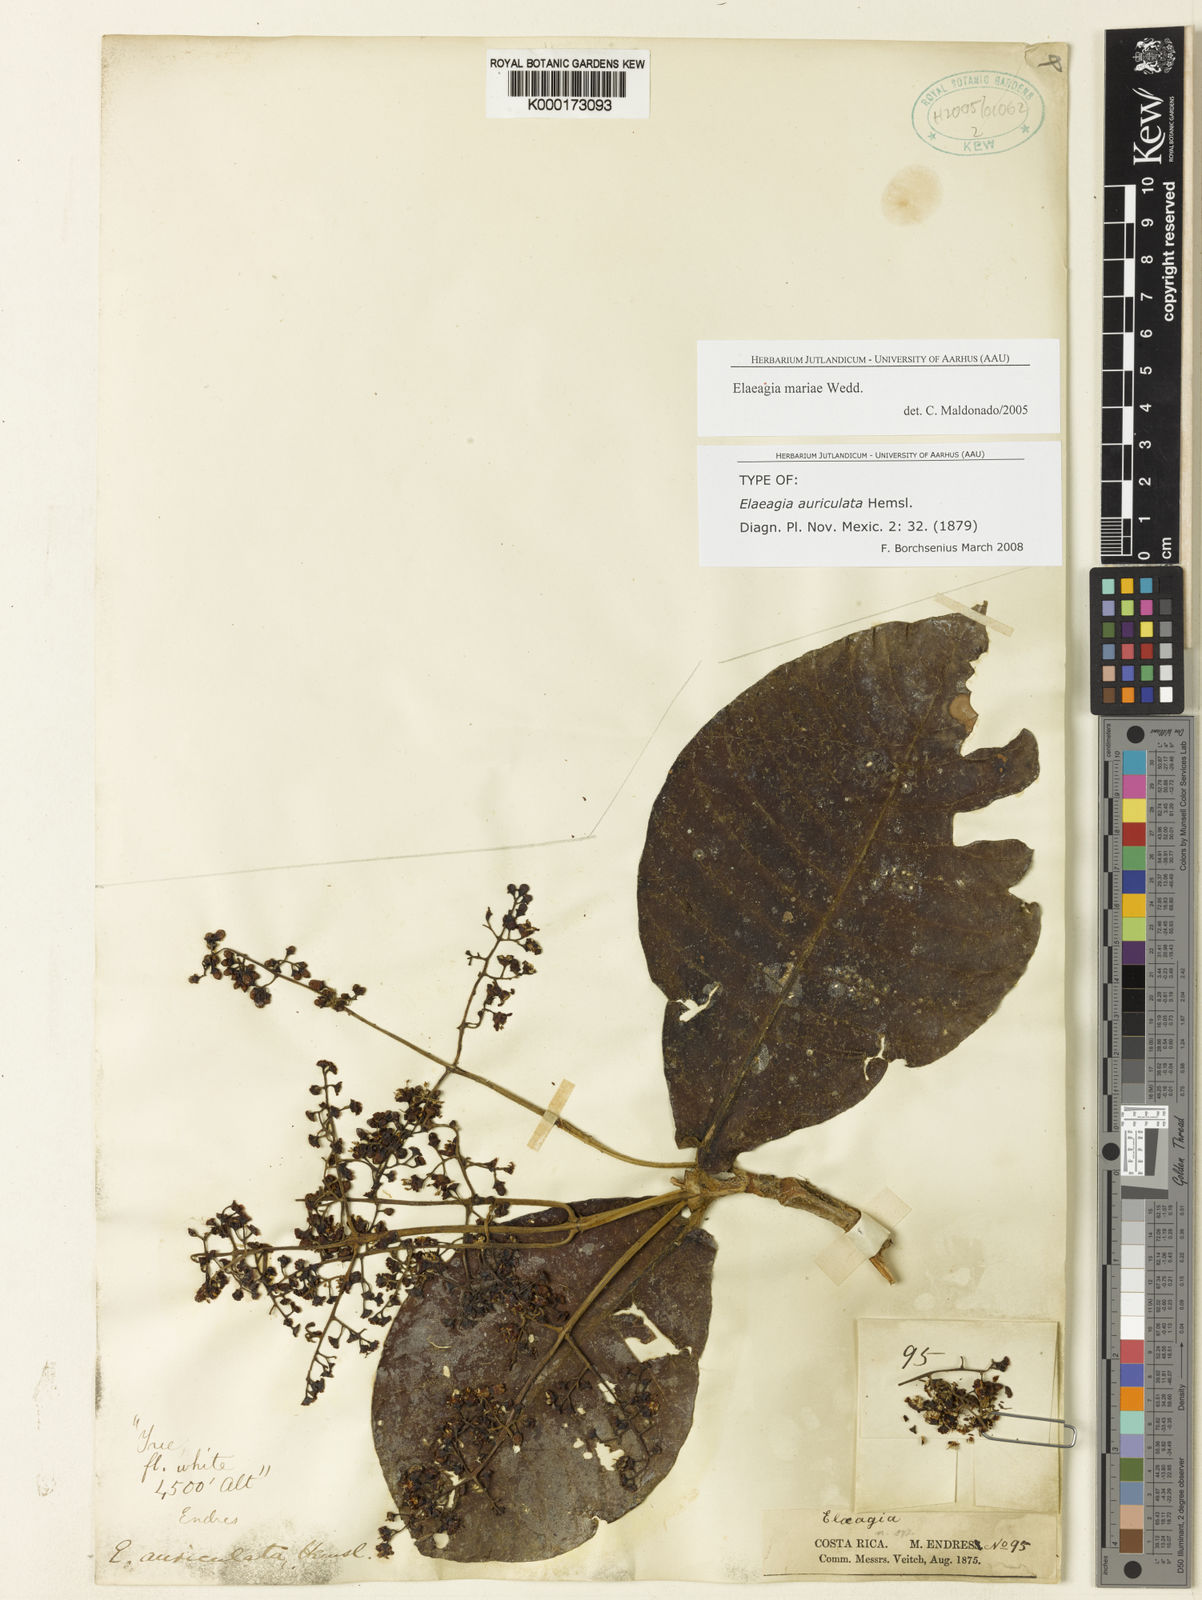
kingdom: Plantae
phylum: Tracheophyta
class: Magnoliopsida
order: Gentianales
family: Rubiaceae
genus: Elaeagia
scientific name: Elaeagia auriculata
